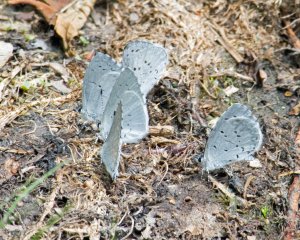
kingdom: Animalia
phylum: Arthropoda
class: Insecta
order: Lepidoptera
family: Lycaenidae
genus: Celastrina
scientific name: Celastrina ladon
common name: Spring Azure
